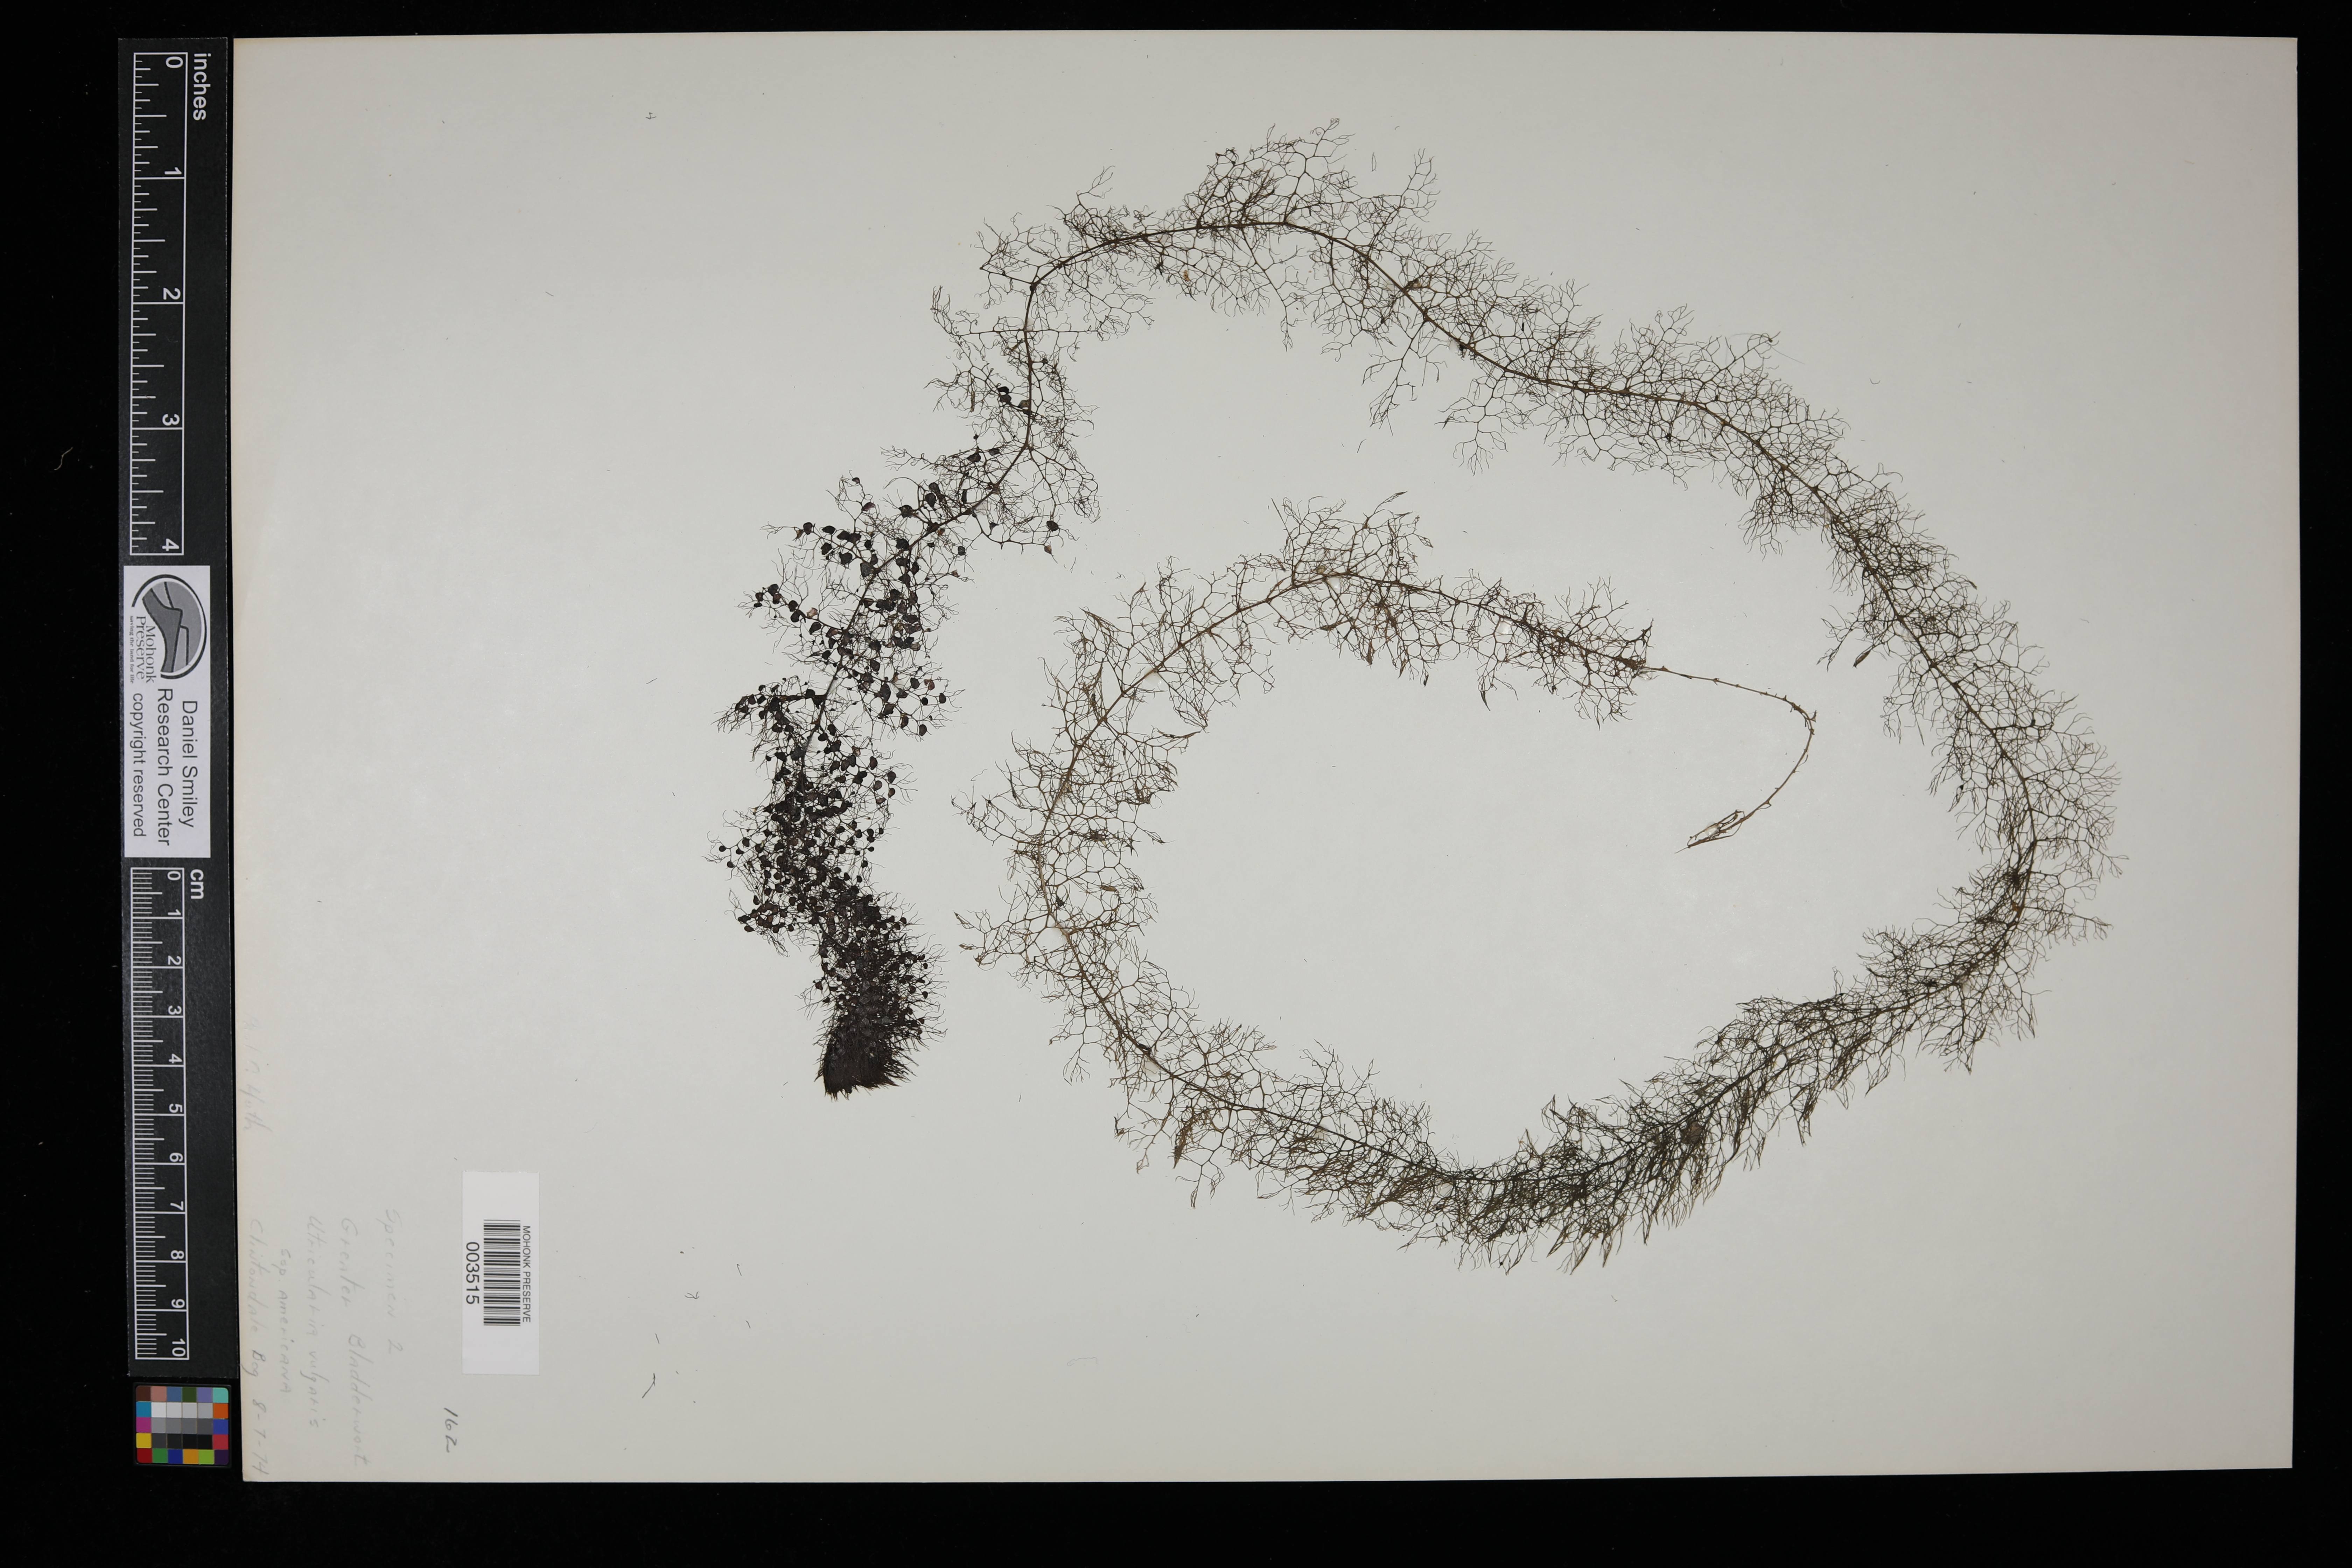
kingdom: Plantae
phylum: Tracheophyta
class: Magnoliopsida
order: Lamiales
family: Lentibulariaceae
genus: Utricularia
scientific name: Utricularia vulgaris
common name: Greater bladderwort
